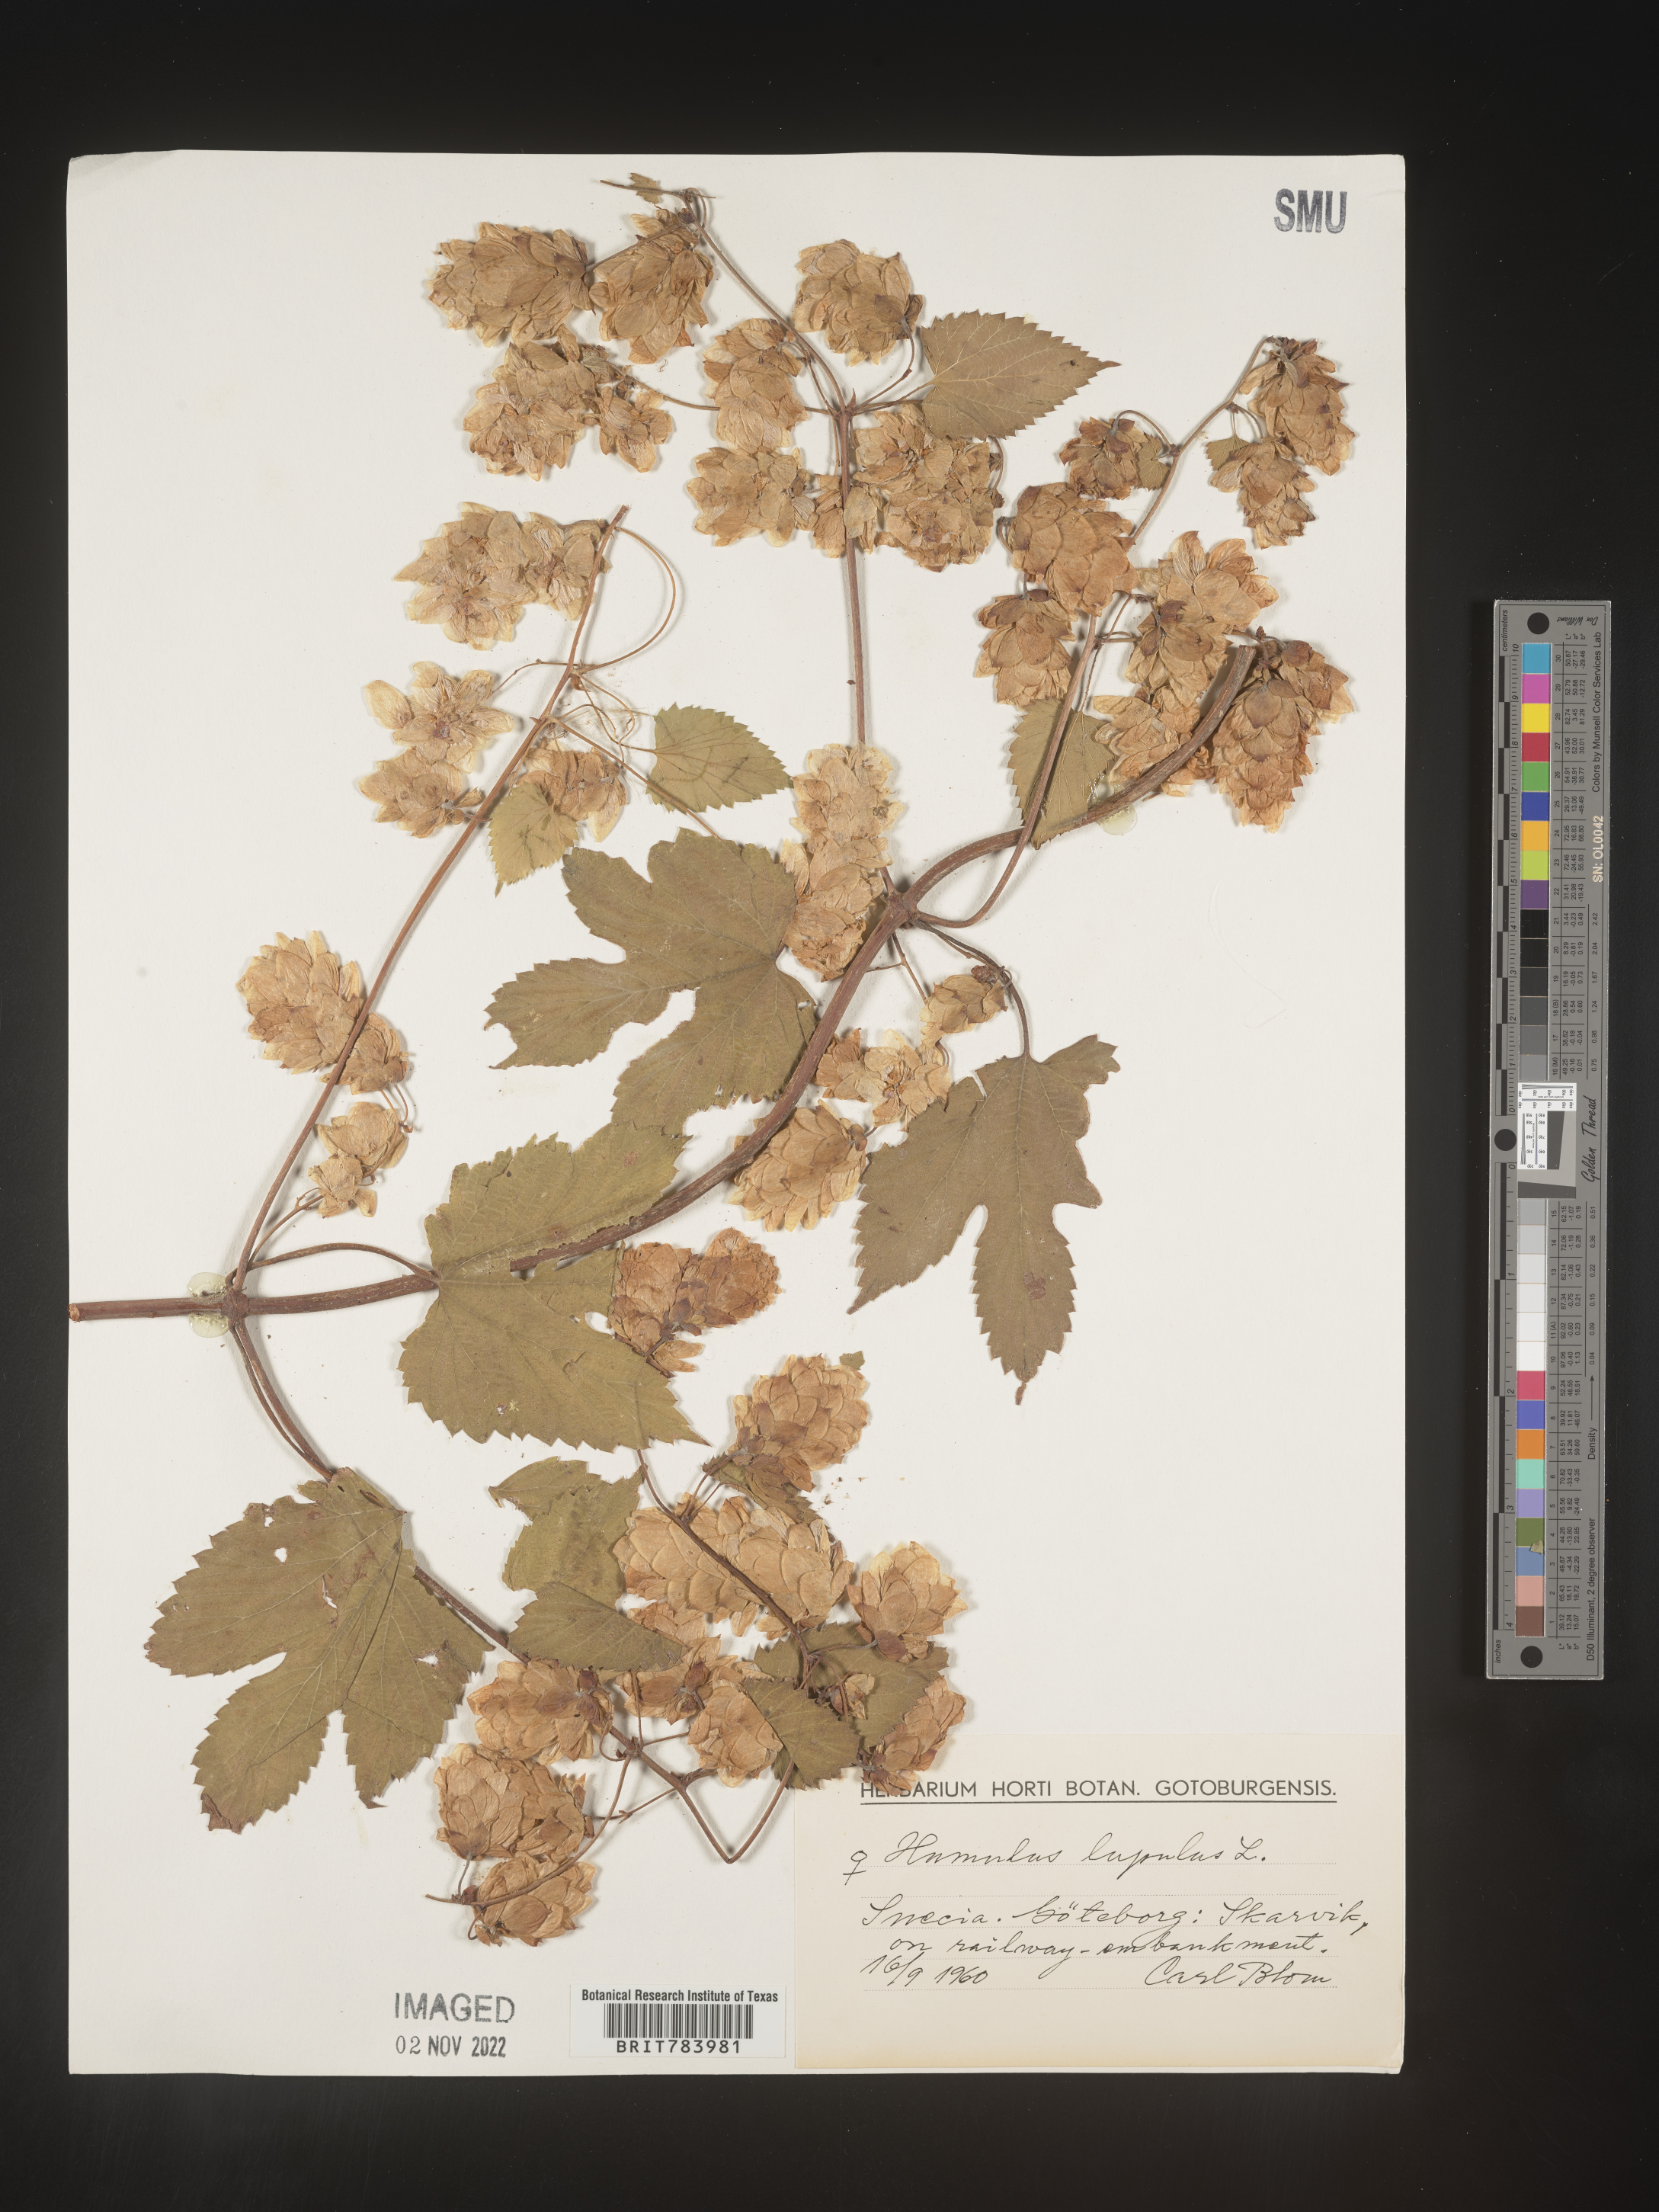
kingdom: Plantae
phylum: Tracheophyta
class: Magnoliopsida
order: Rosales
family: Cannabaceae
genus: Humulus
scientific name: Humulus
